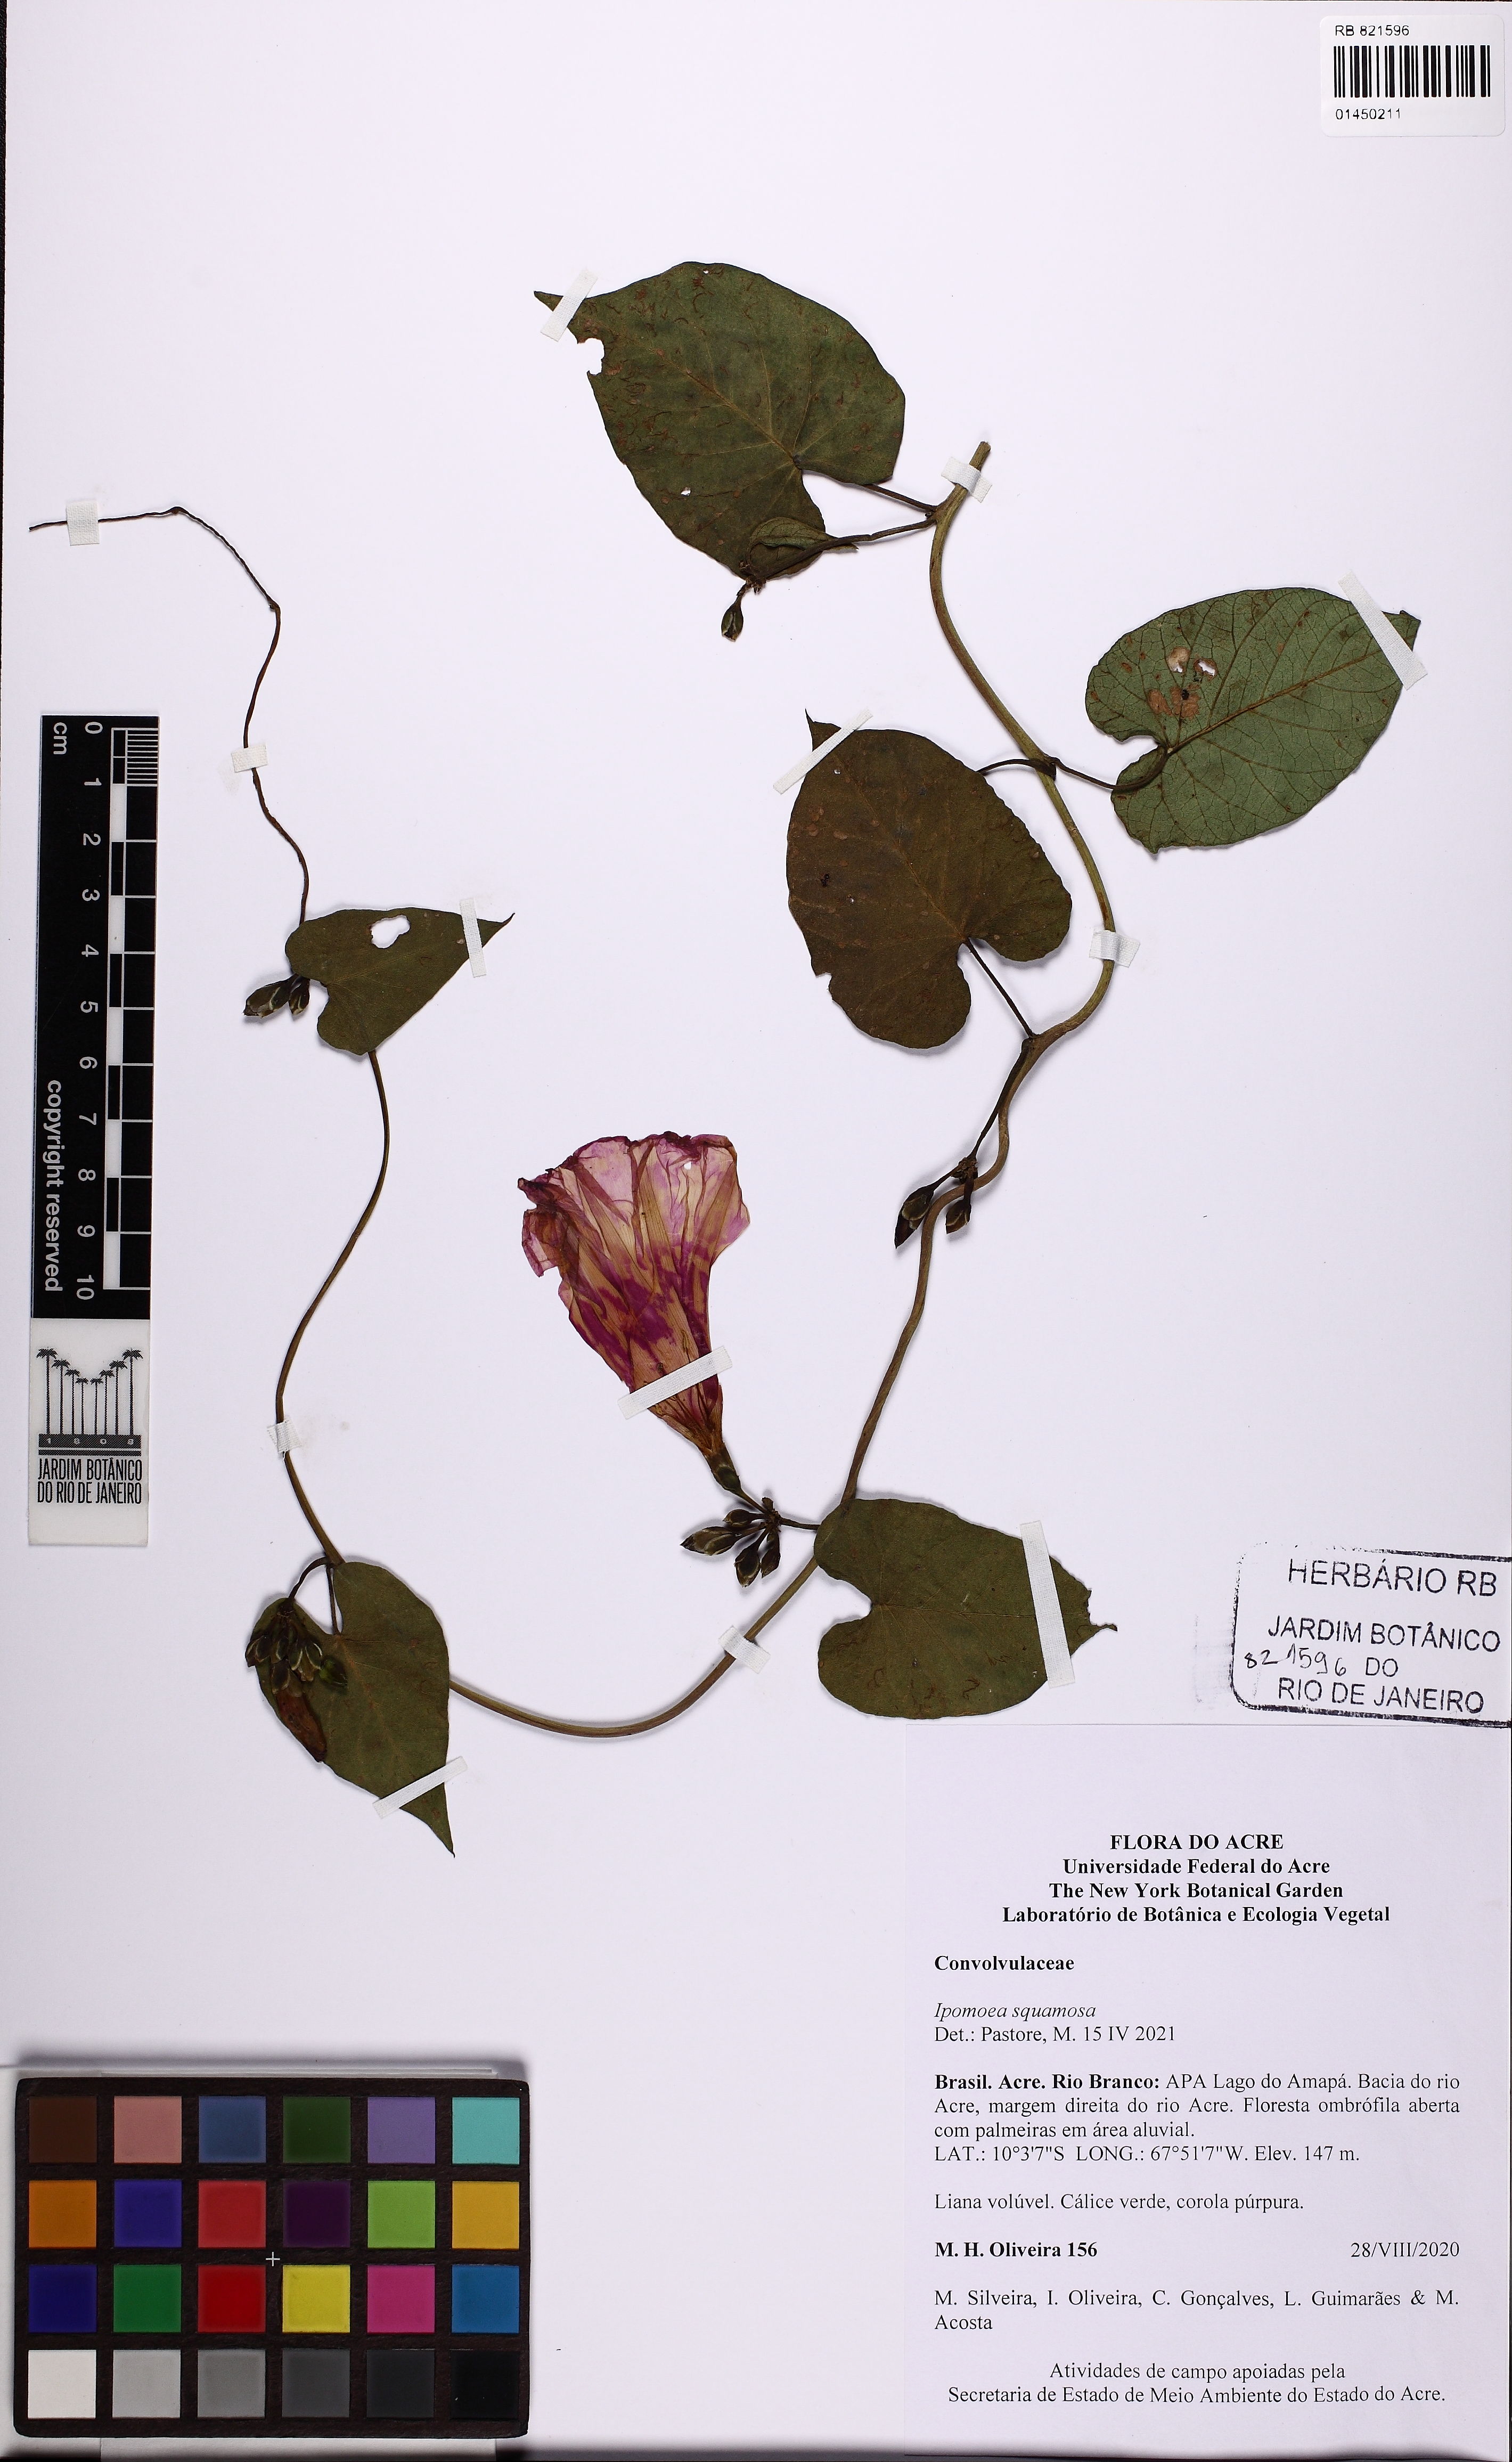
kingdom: Plantae
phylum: Tracheophyta
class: Magnoliopsida
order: Solanales
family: Convolvulaceae
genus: Ipomoea
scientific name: Ipomoea squamosa
